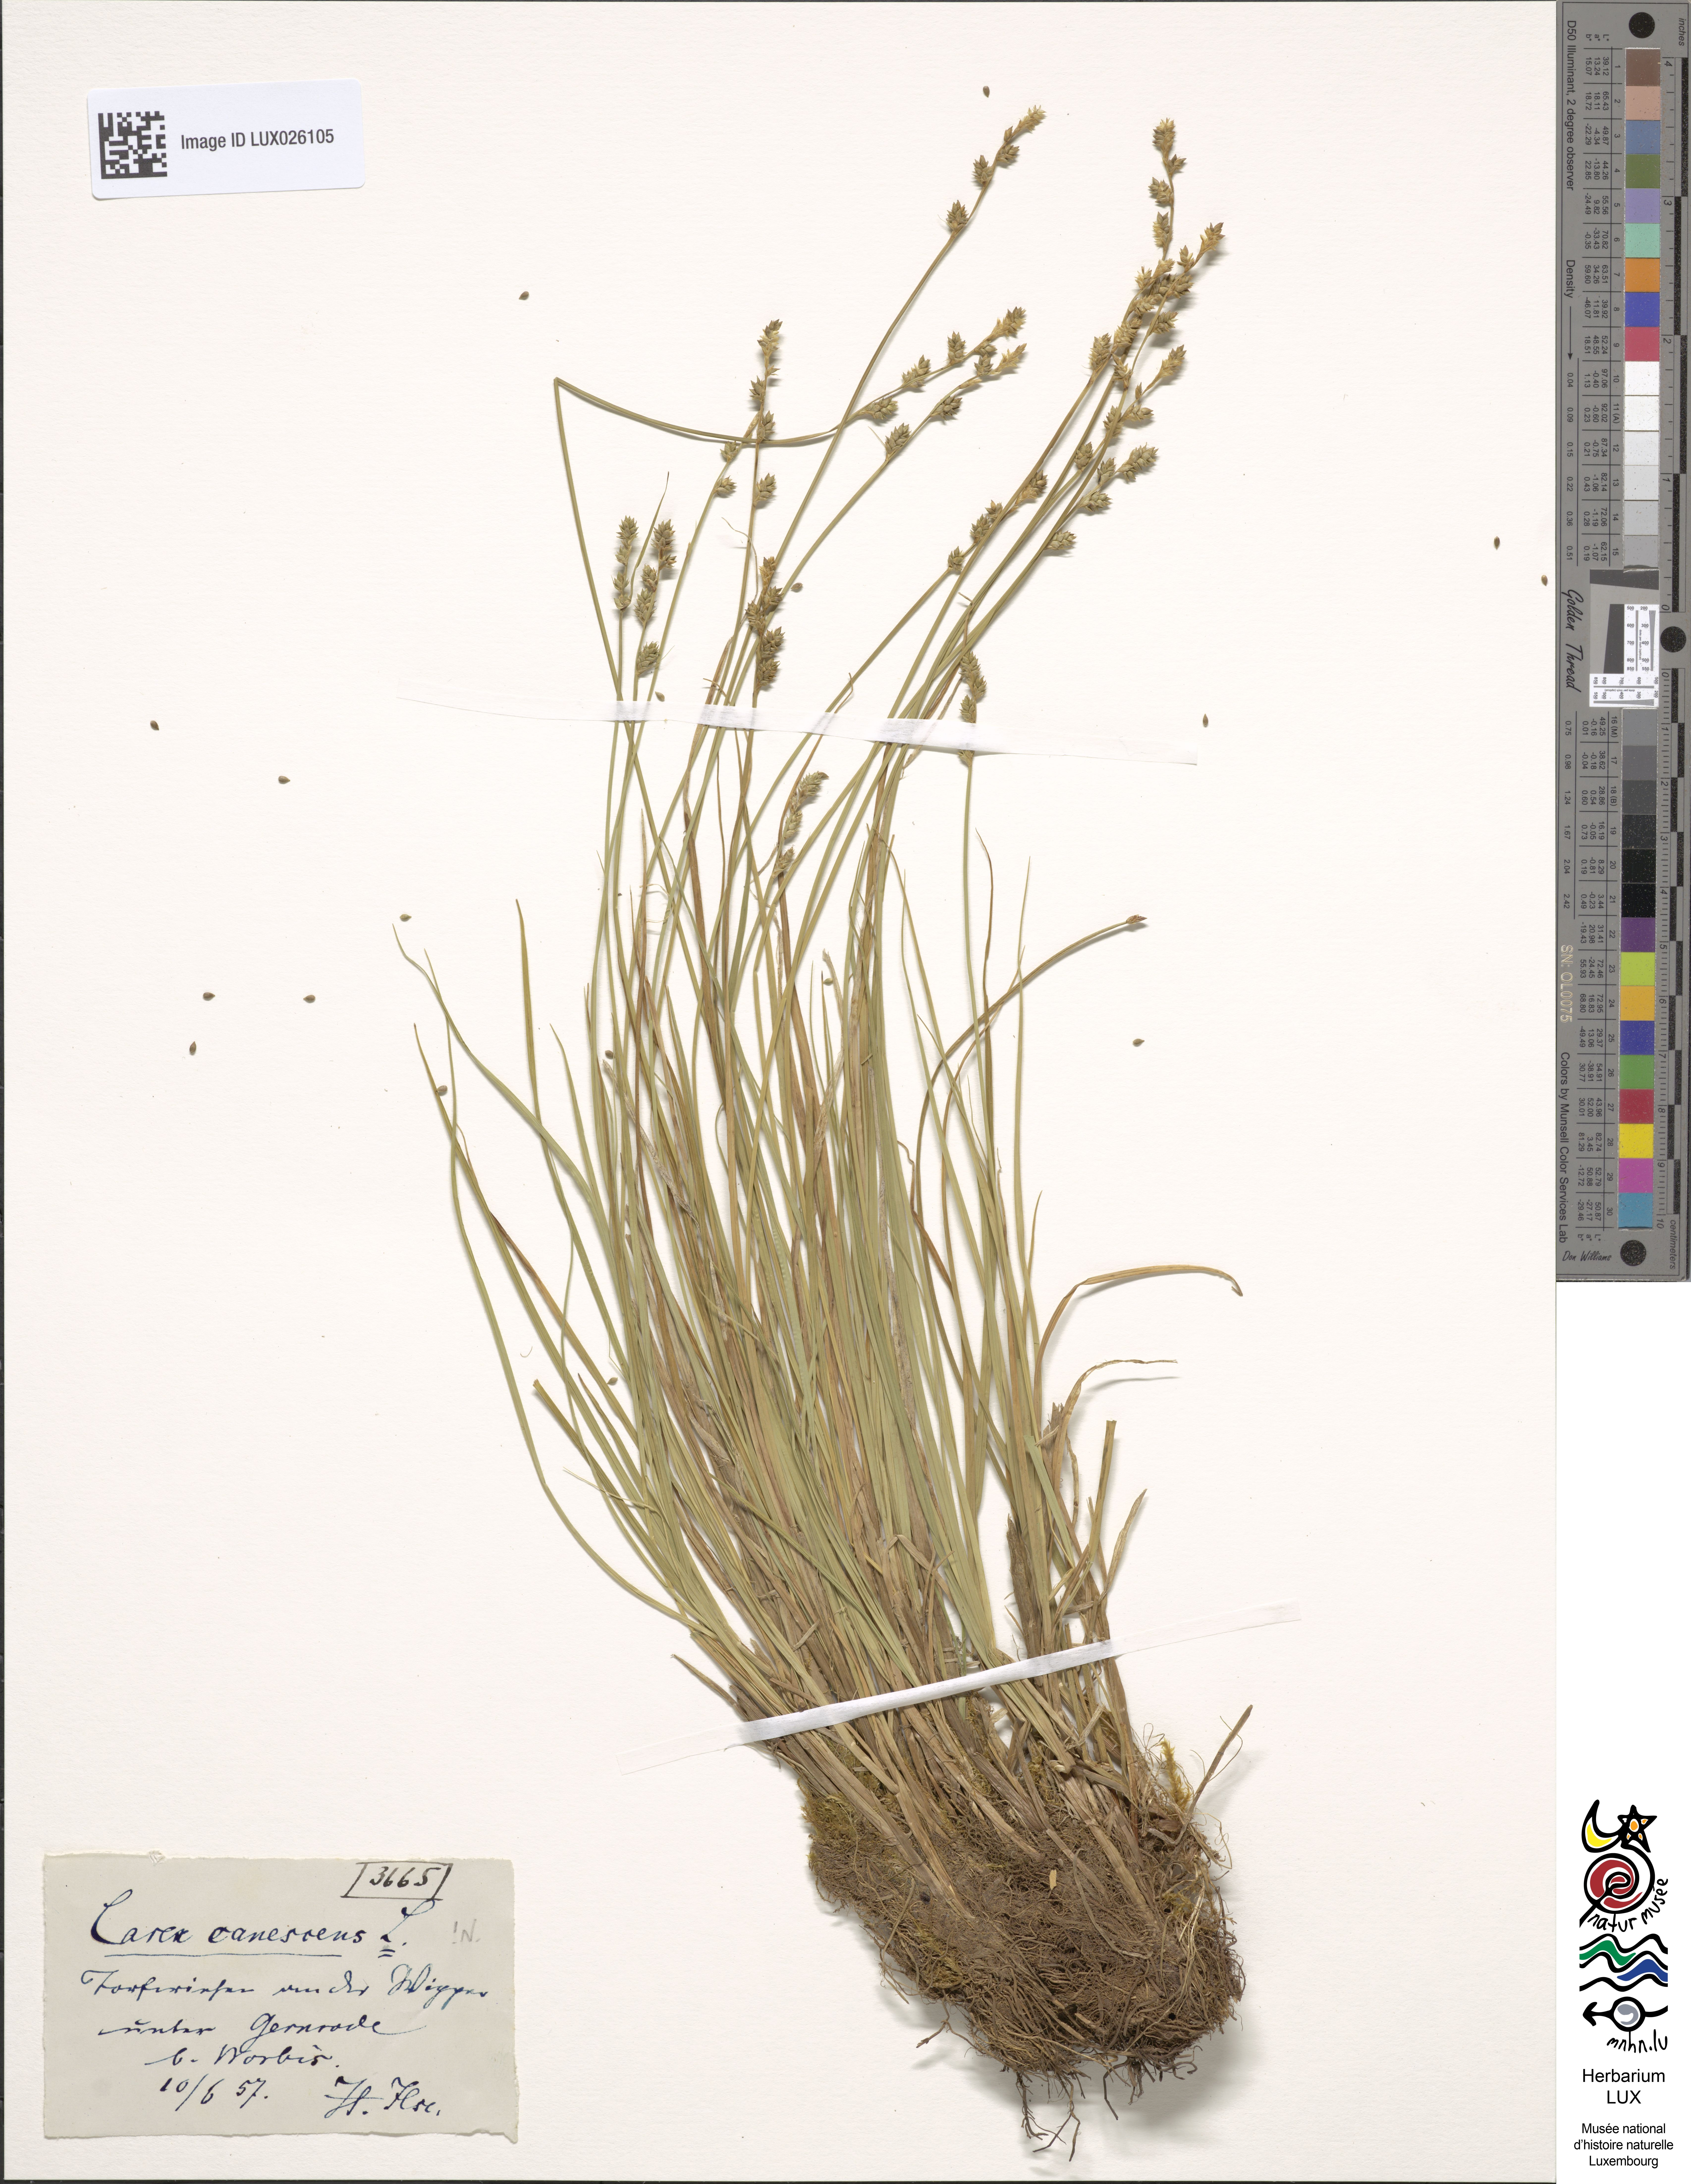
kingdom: Plantae
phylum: Tracheophyta
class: Liliopsida
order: Poales
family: Cyperaceae
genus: Carex
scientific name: Carex canescens
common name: White sedge
